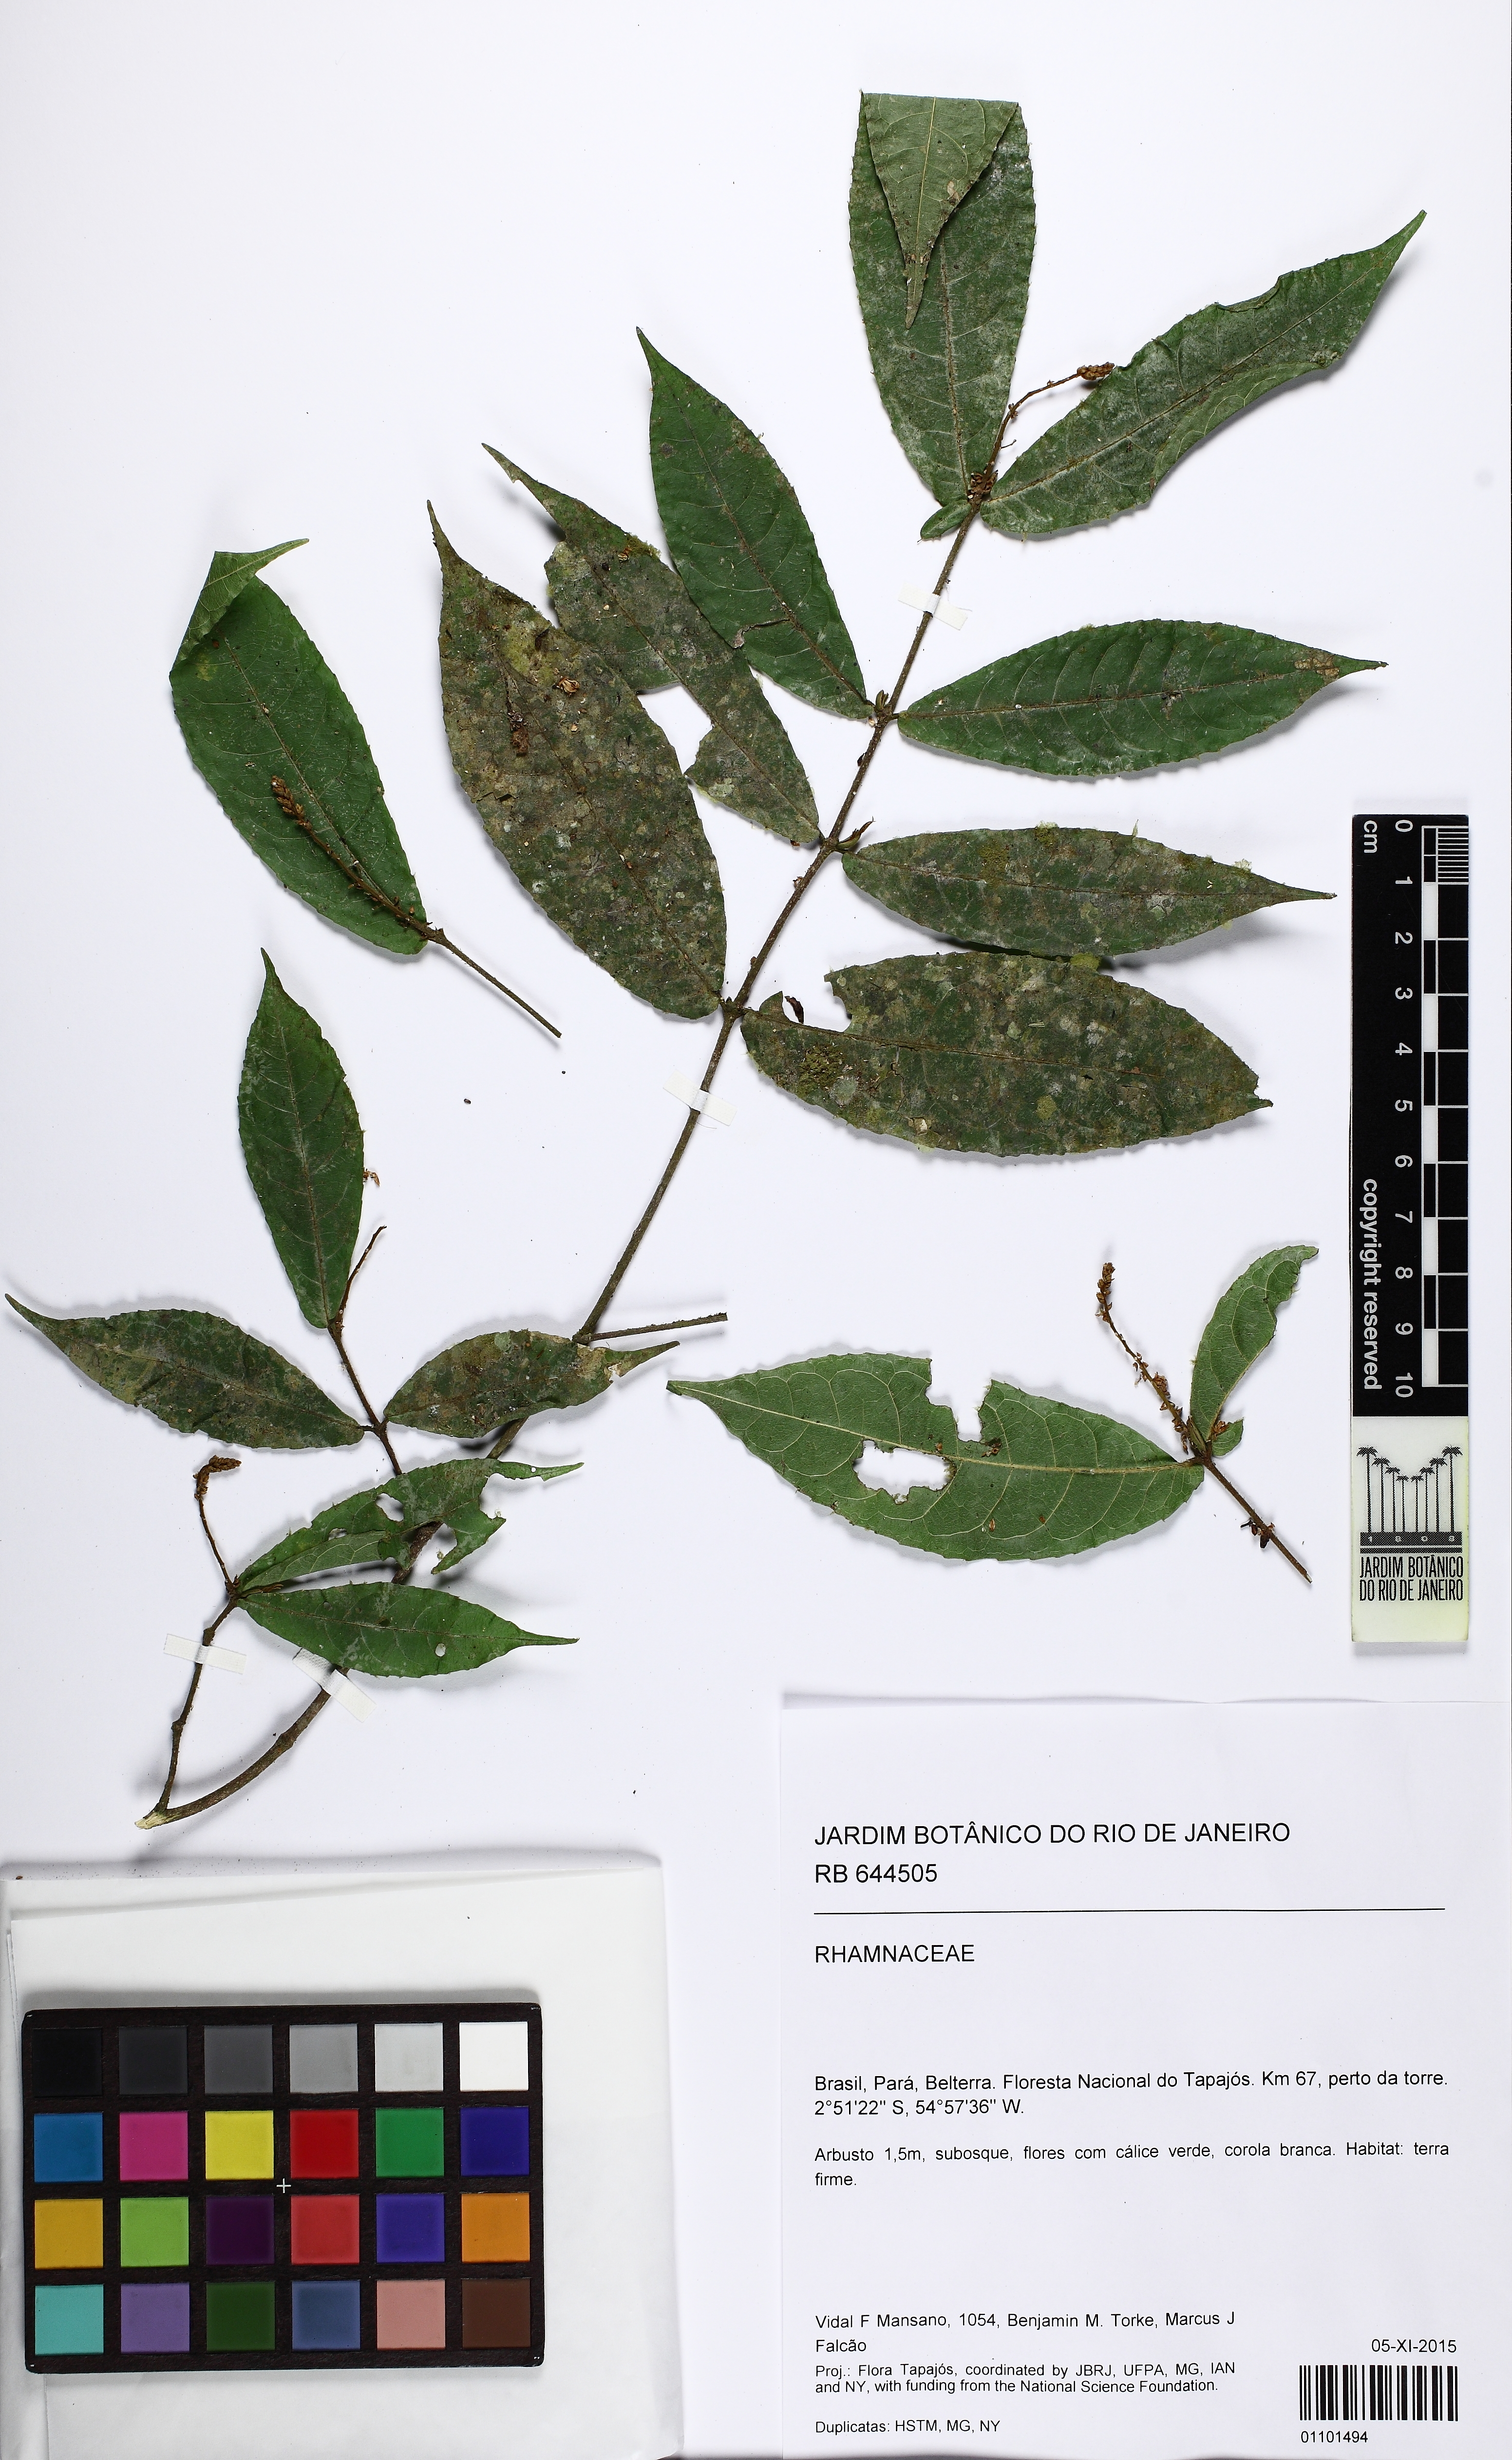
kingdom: Plantae
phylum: Tracheophyta
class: Magnoliopsida
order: Rosales
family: Rhamnaceae
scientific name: Rhamnaceae
